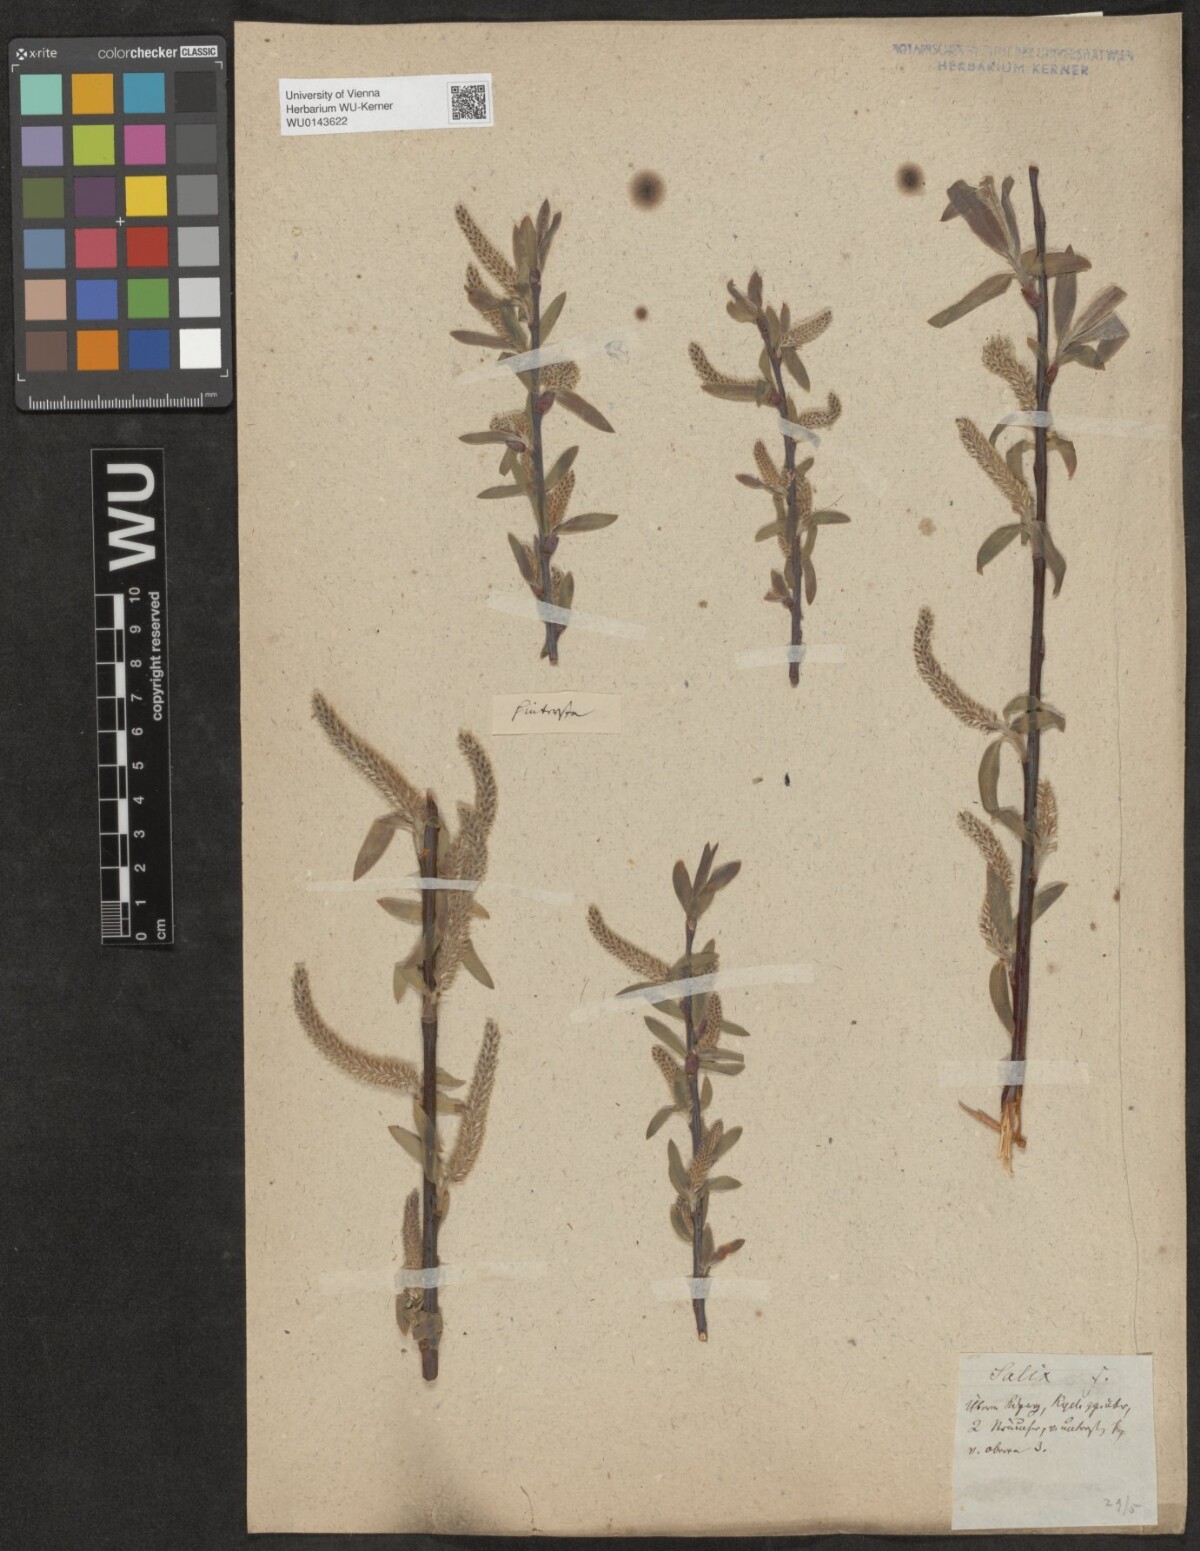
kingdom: Plantae
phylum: Tracheophyta
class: Magnoliopsida
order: Malpighiales
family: Salicaceae
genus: Salix
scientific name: Salix
